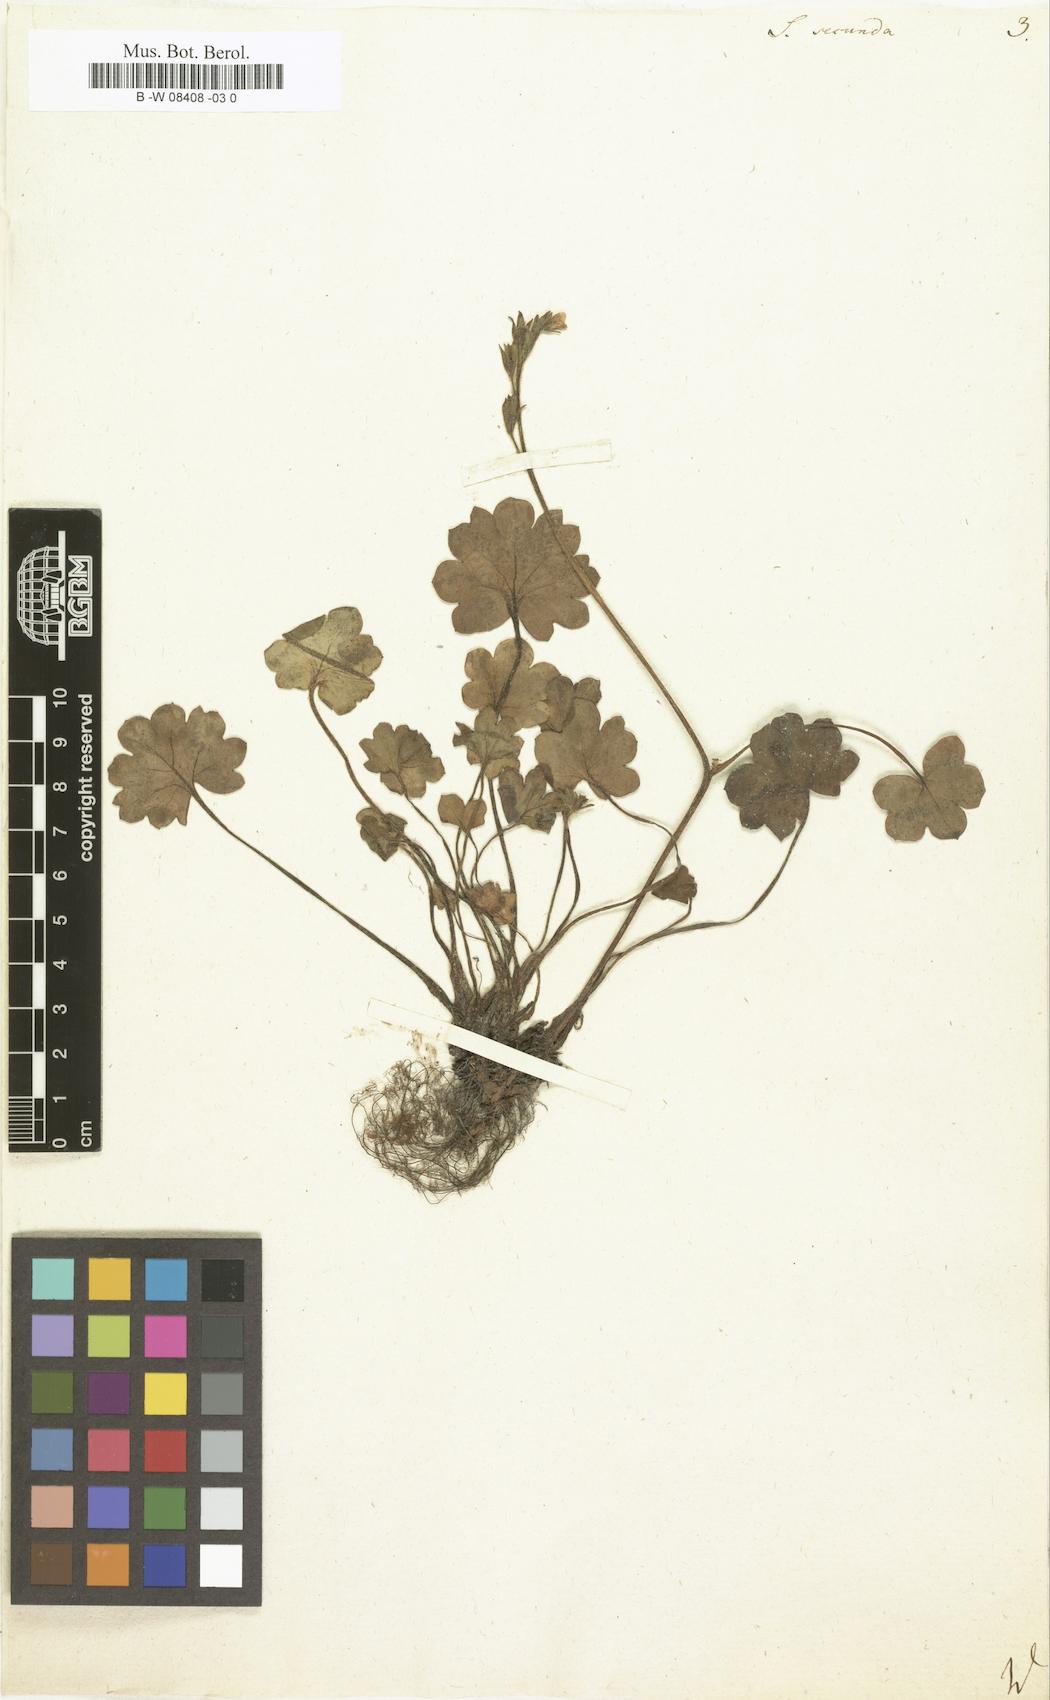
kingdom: Plantae
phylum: Tracheophyta
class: Magnoliopsida
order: Saxifragales
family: Saxifragaceae
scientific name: Saxifragaceae
